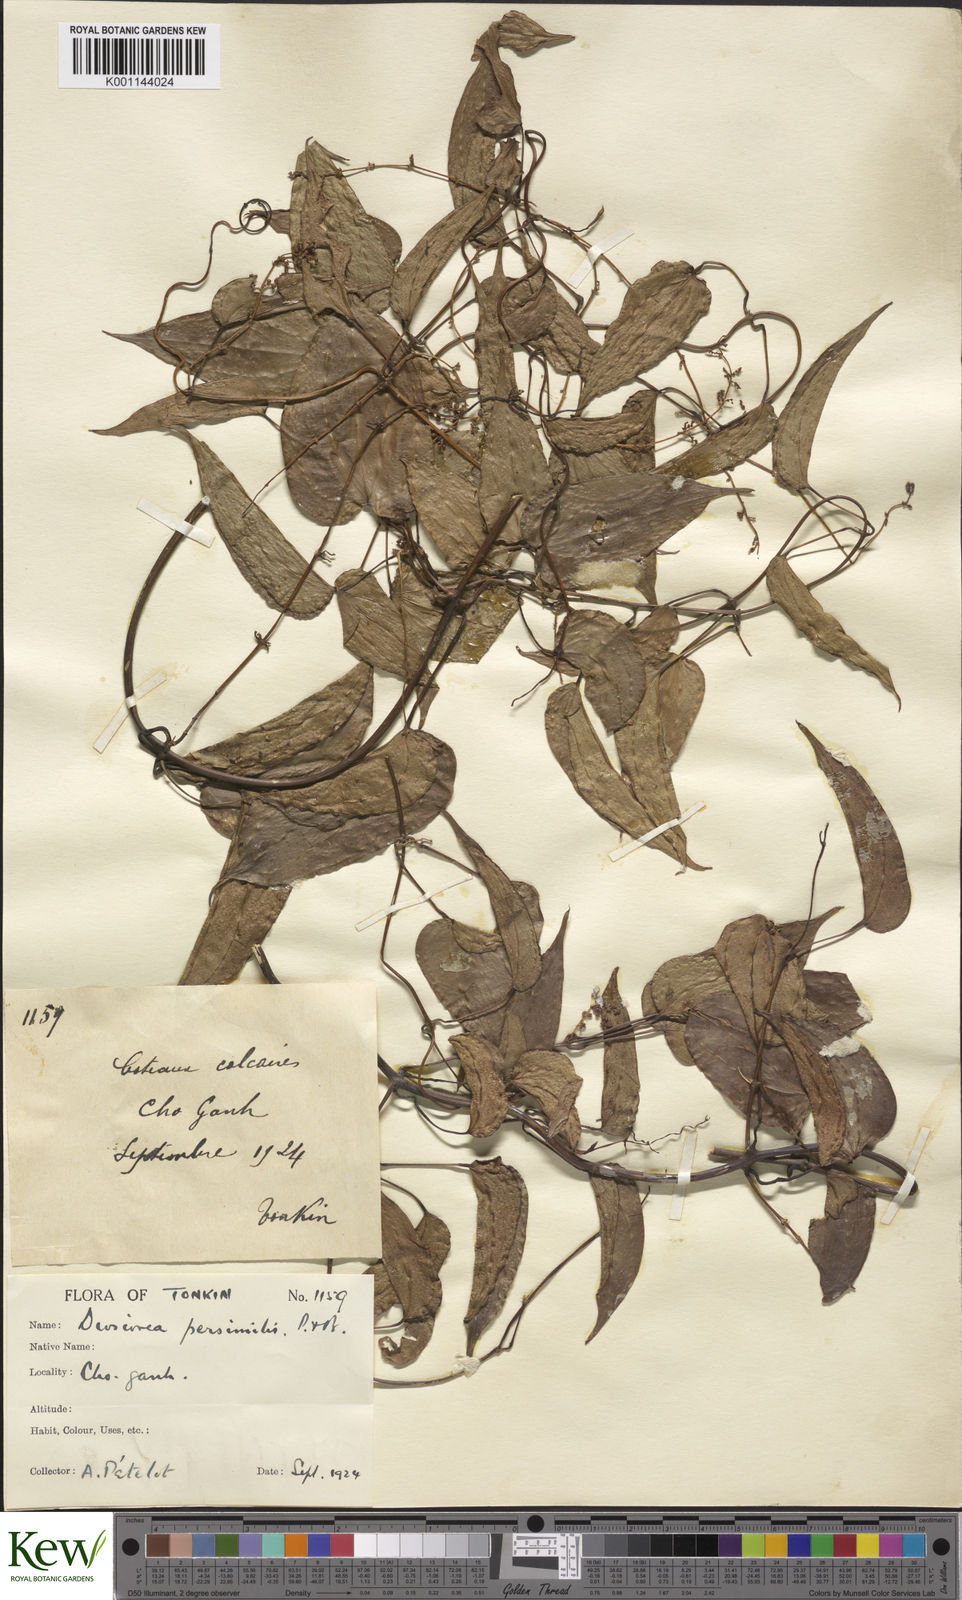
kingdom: Plantae
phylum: Tracheophyta
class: Liliopsida
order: Dioscoreales
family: Dioscoreaceae
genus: Dioscorea
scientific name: Dioscorea hamiltonii
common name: Mountain yam
